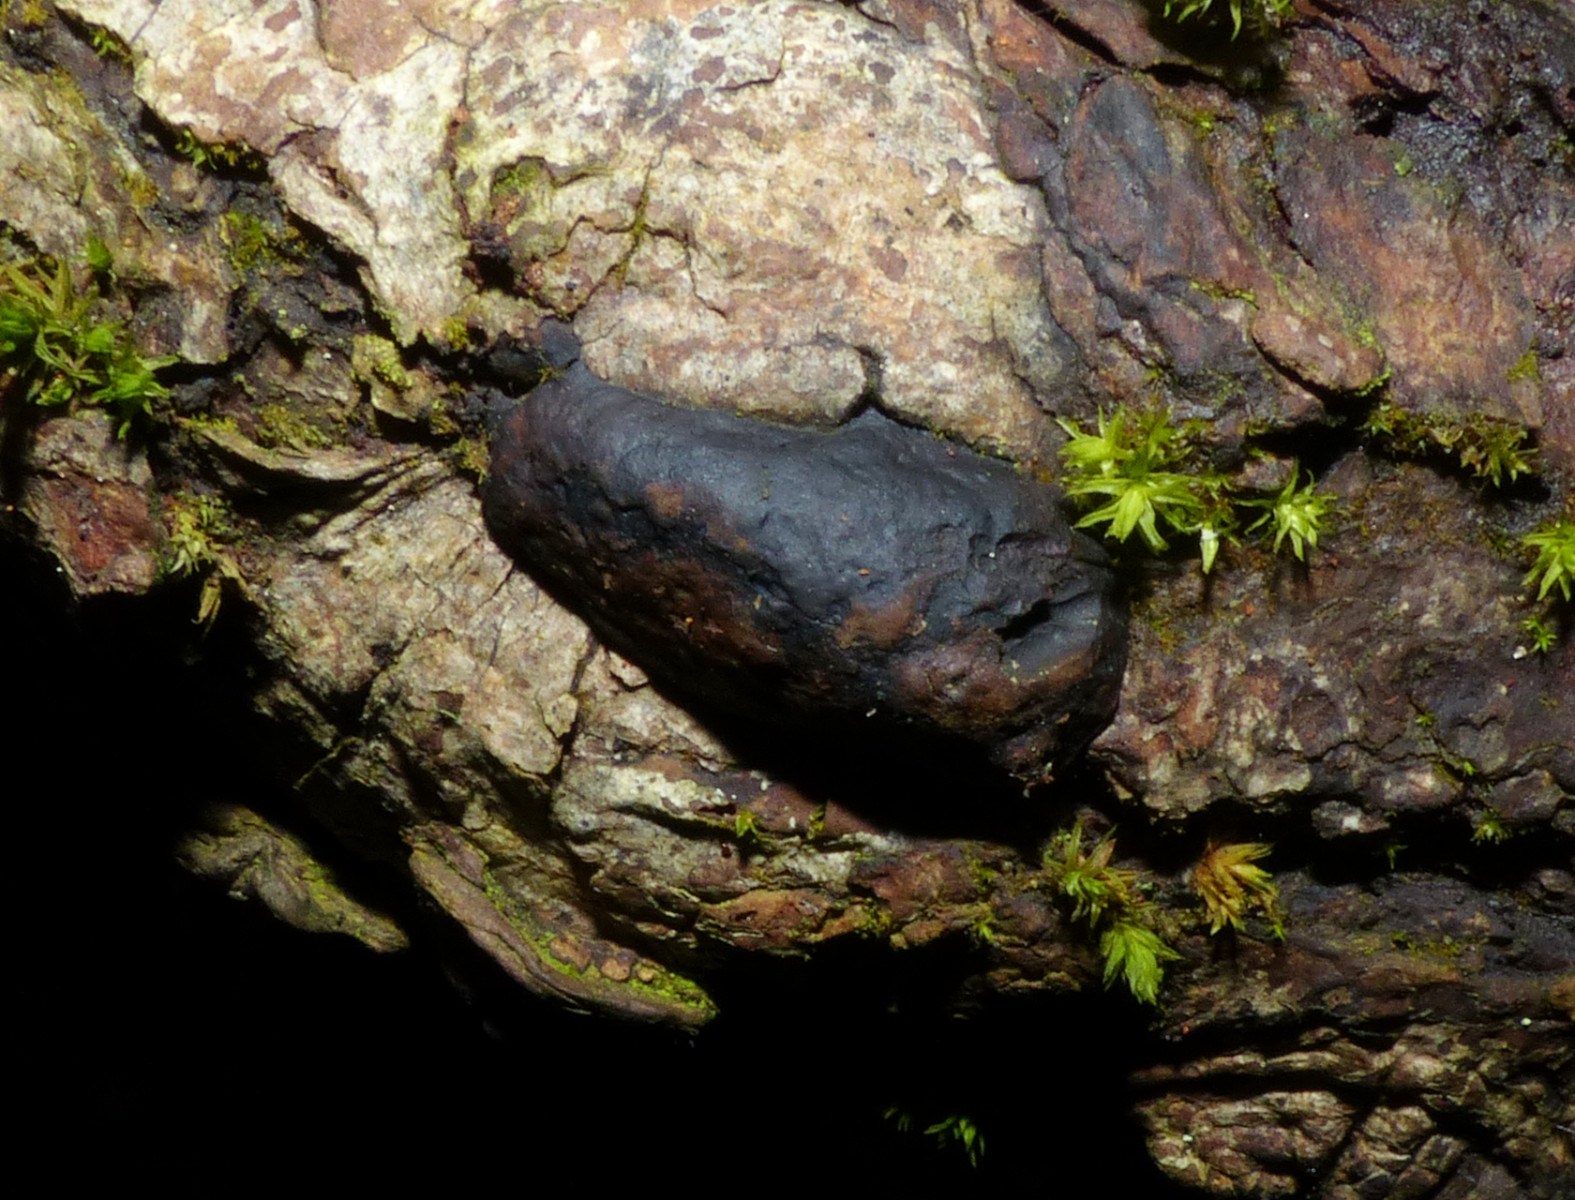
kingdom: Fungi
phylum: Basidiomycota
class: Agaricomycetes
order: Polyporales
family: Polyporaceae
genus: Fomes
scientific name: Fomes fomentarius
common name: tøndersvamp
